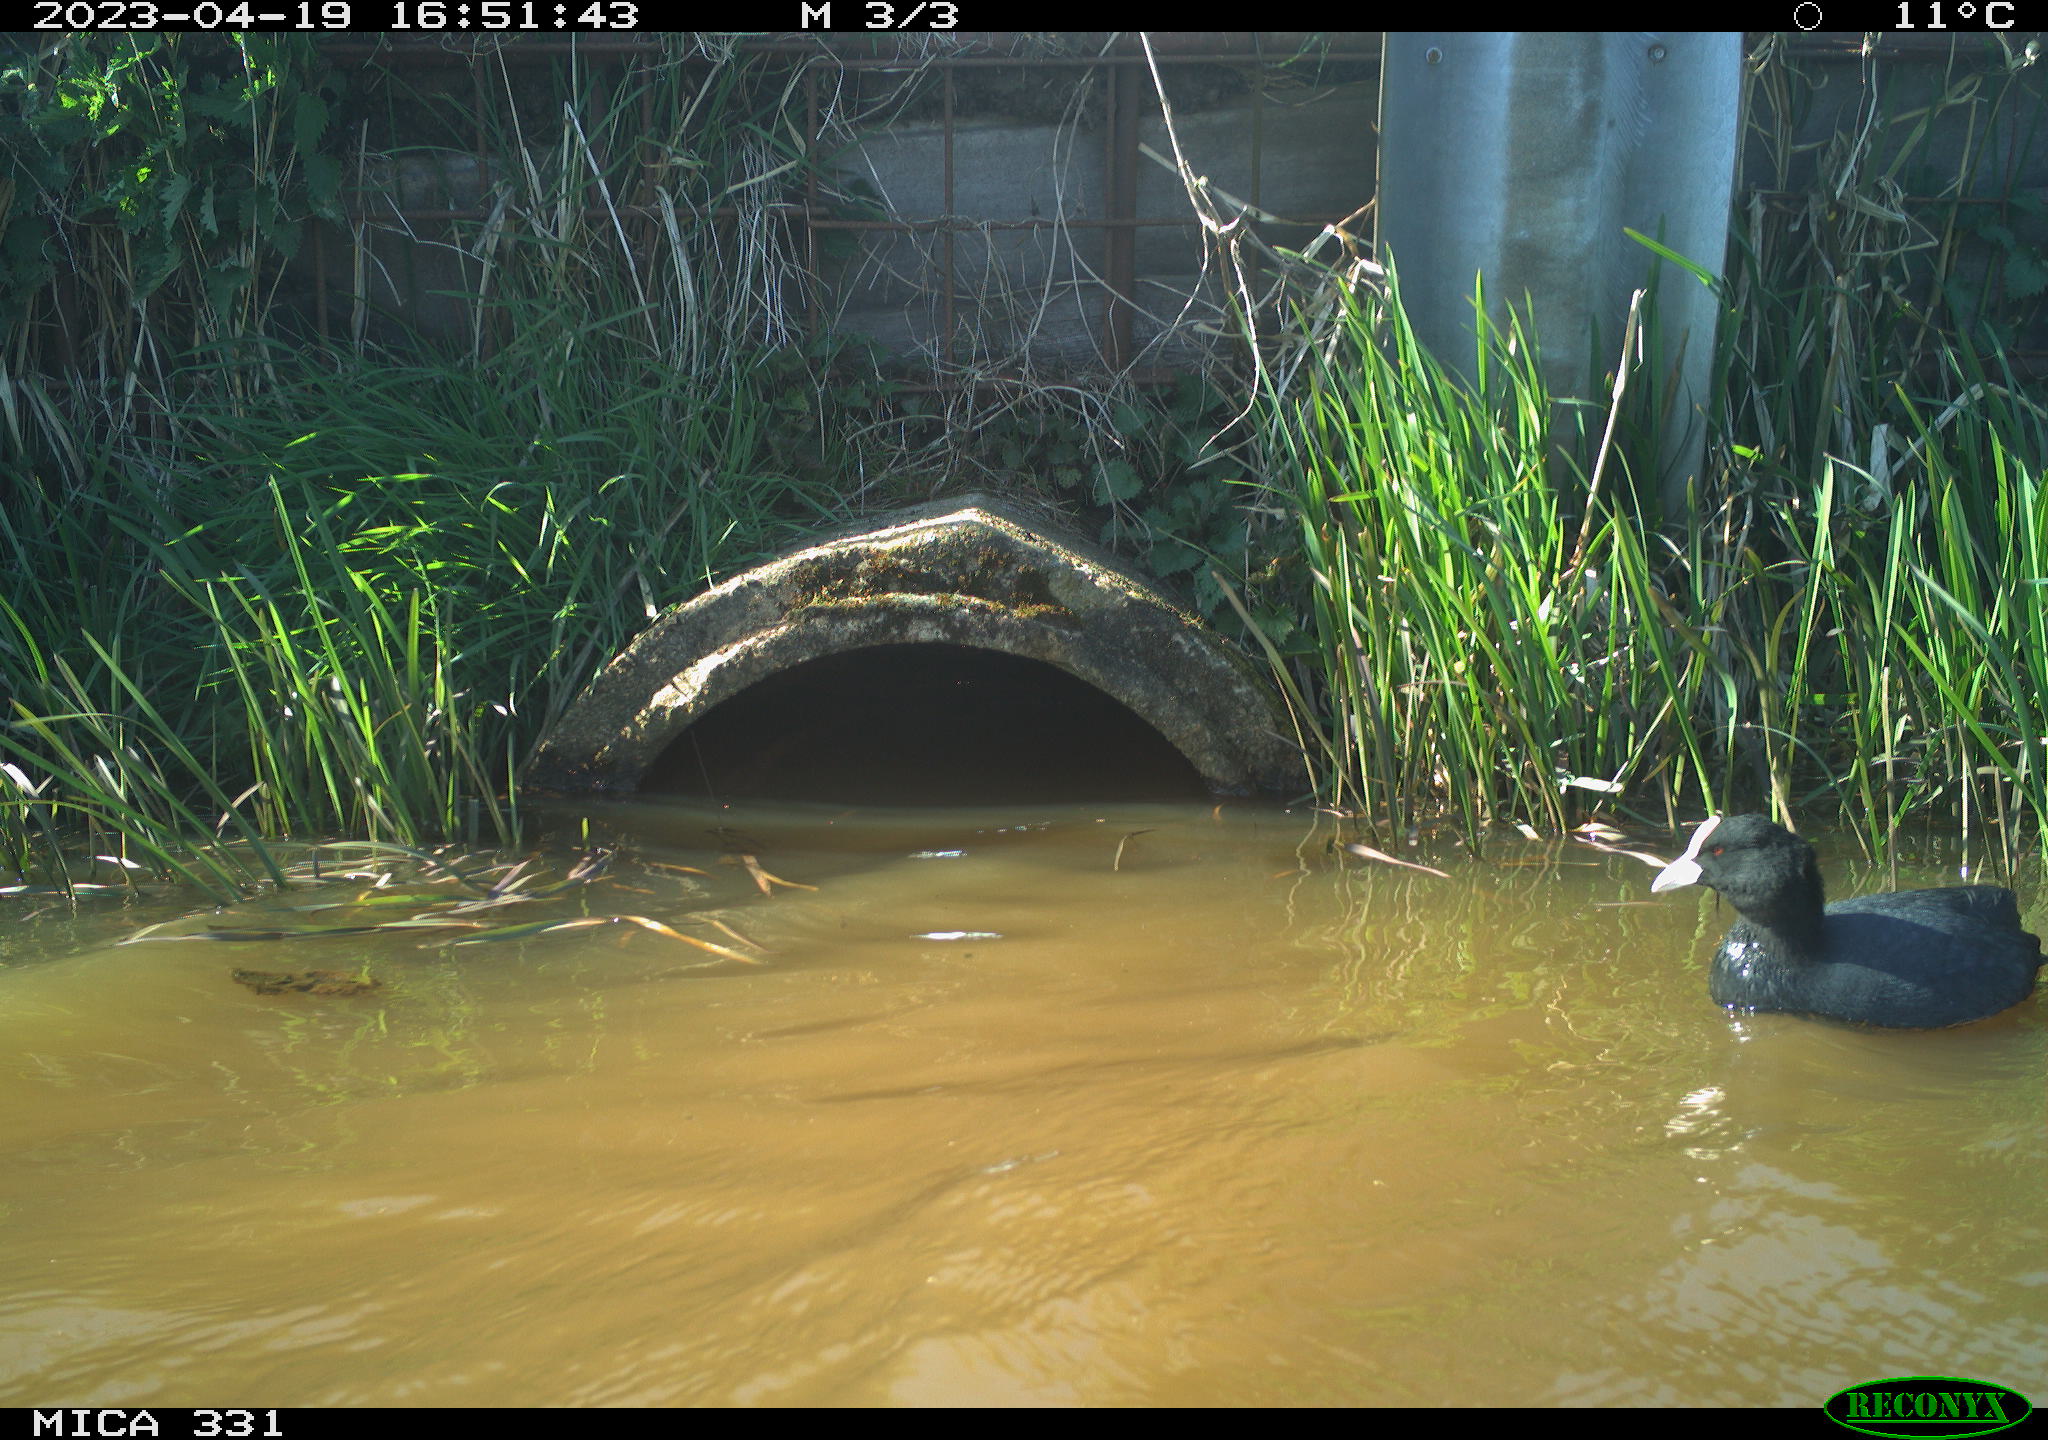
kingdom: Animalia
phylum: Chordata
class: Aves
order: Gruiformes
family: Rallidae
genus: Fulica
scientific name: Fulica atra
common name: Eurasian coot
